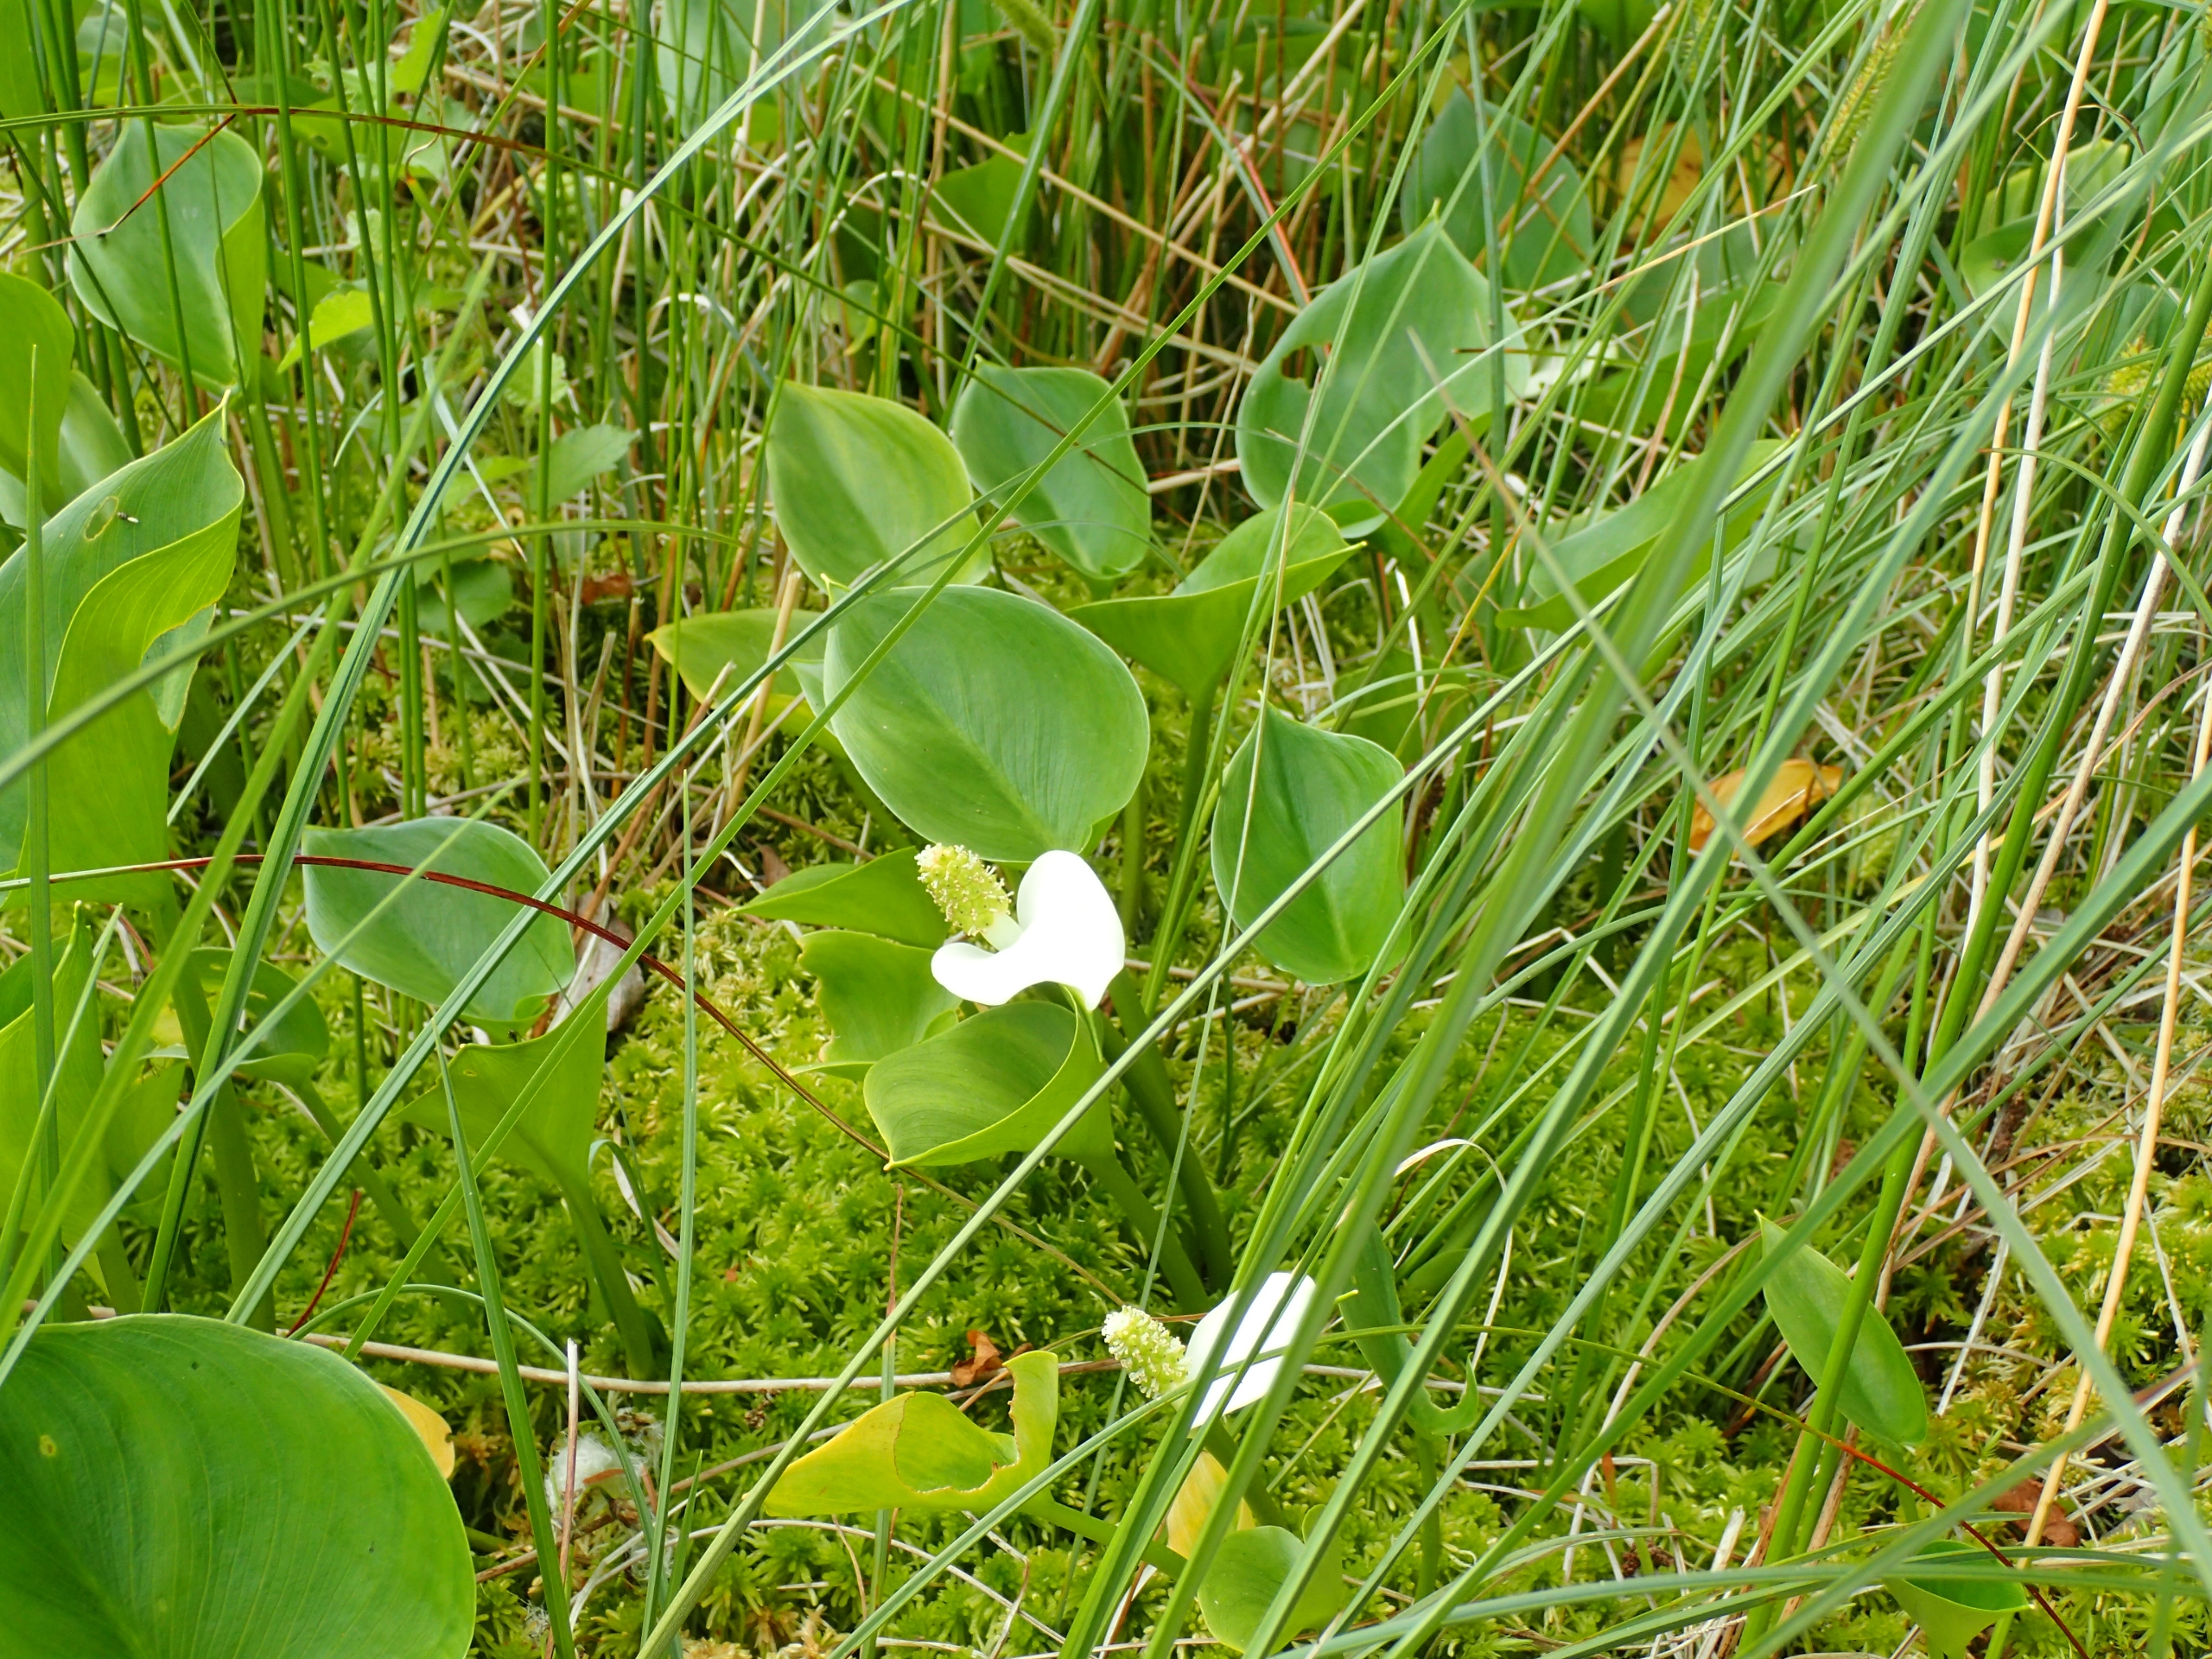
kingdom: Plantae
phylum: Tracheophyta
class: Liliopsida
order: Alismatales
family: Araceae
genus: Calla
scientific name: Calla palustris
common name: Kærmysse
